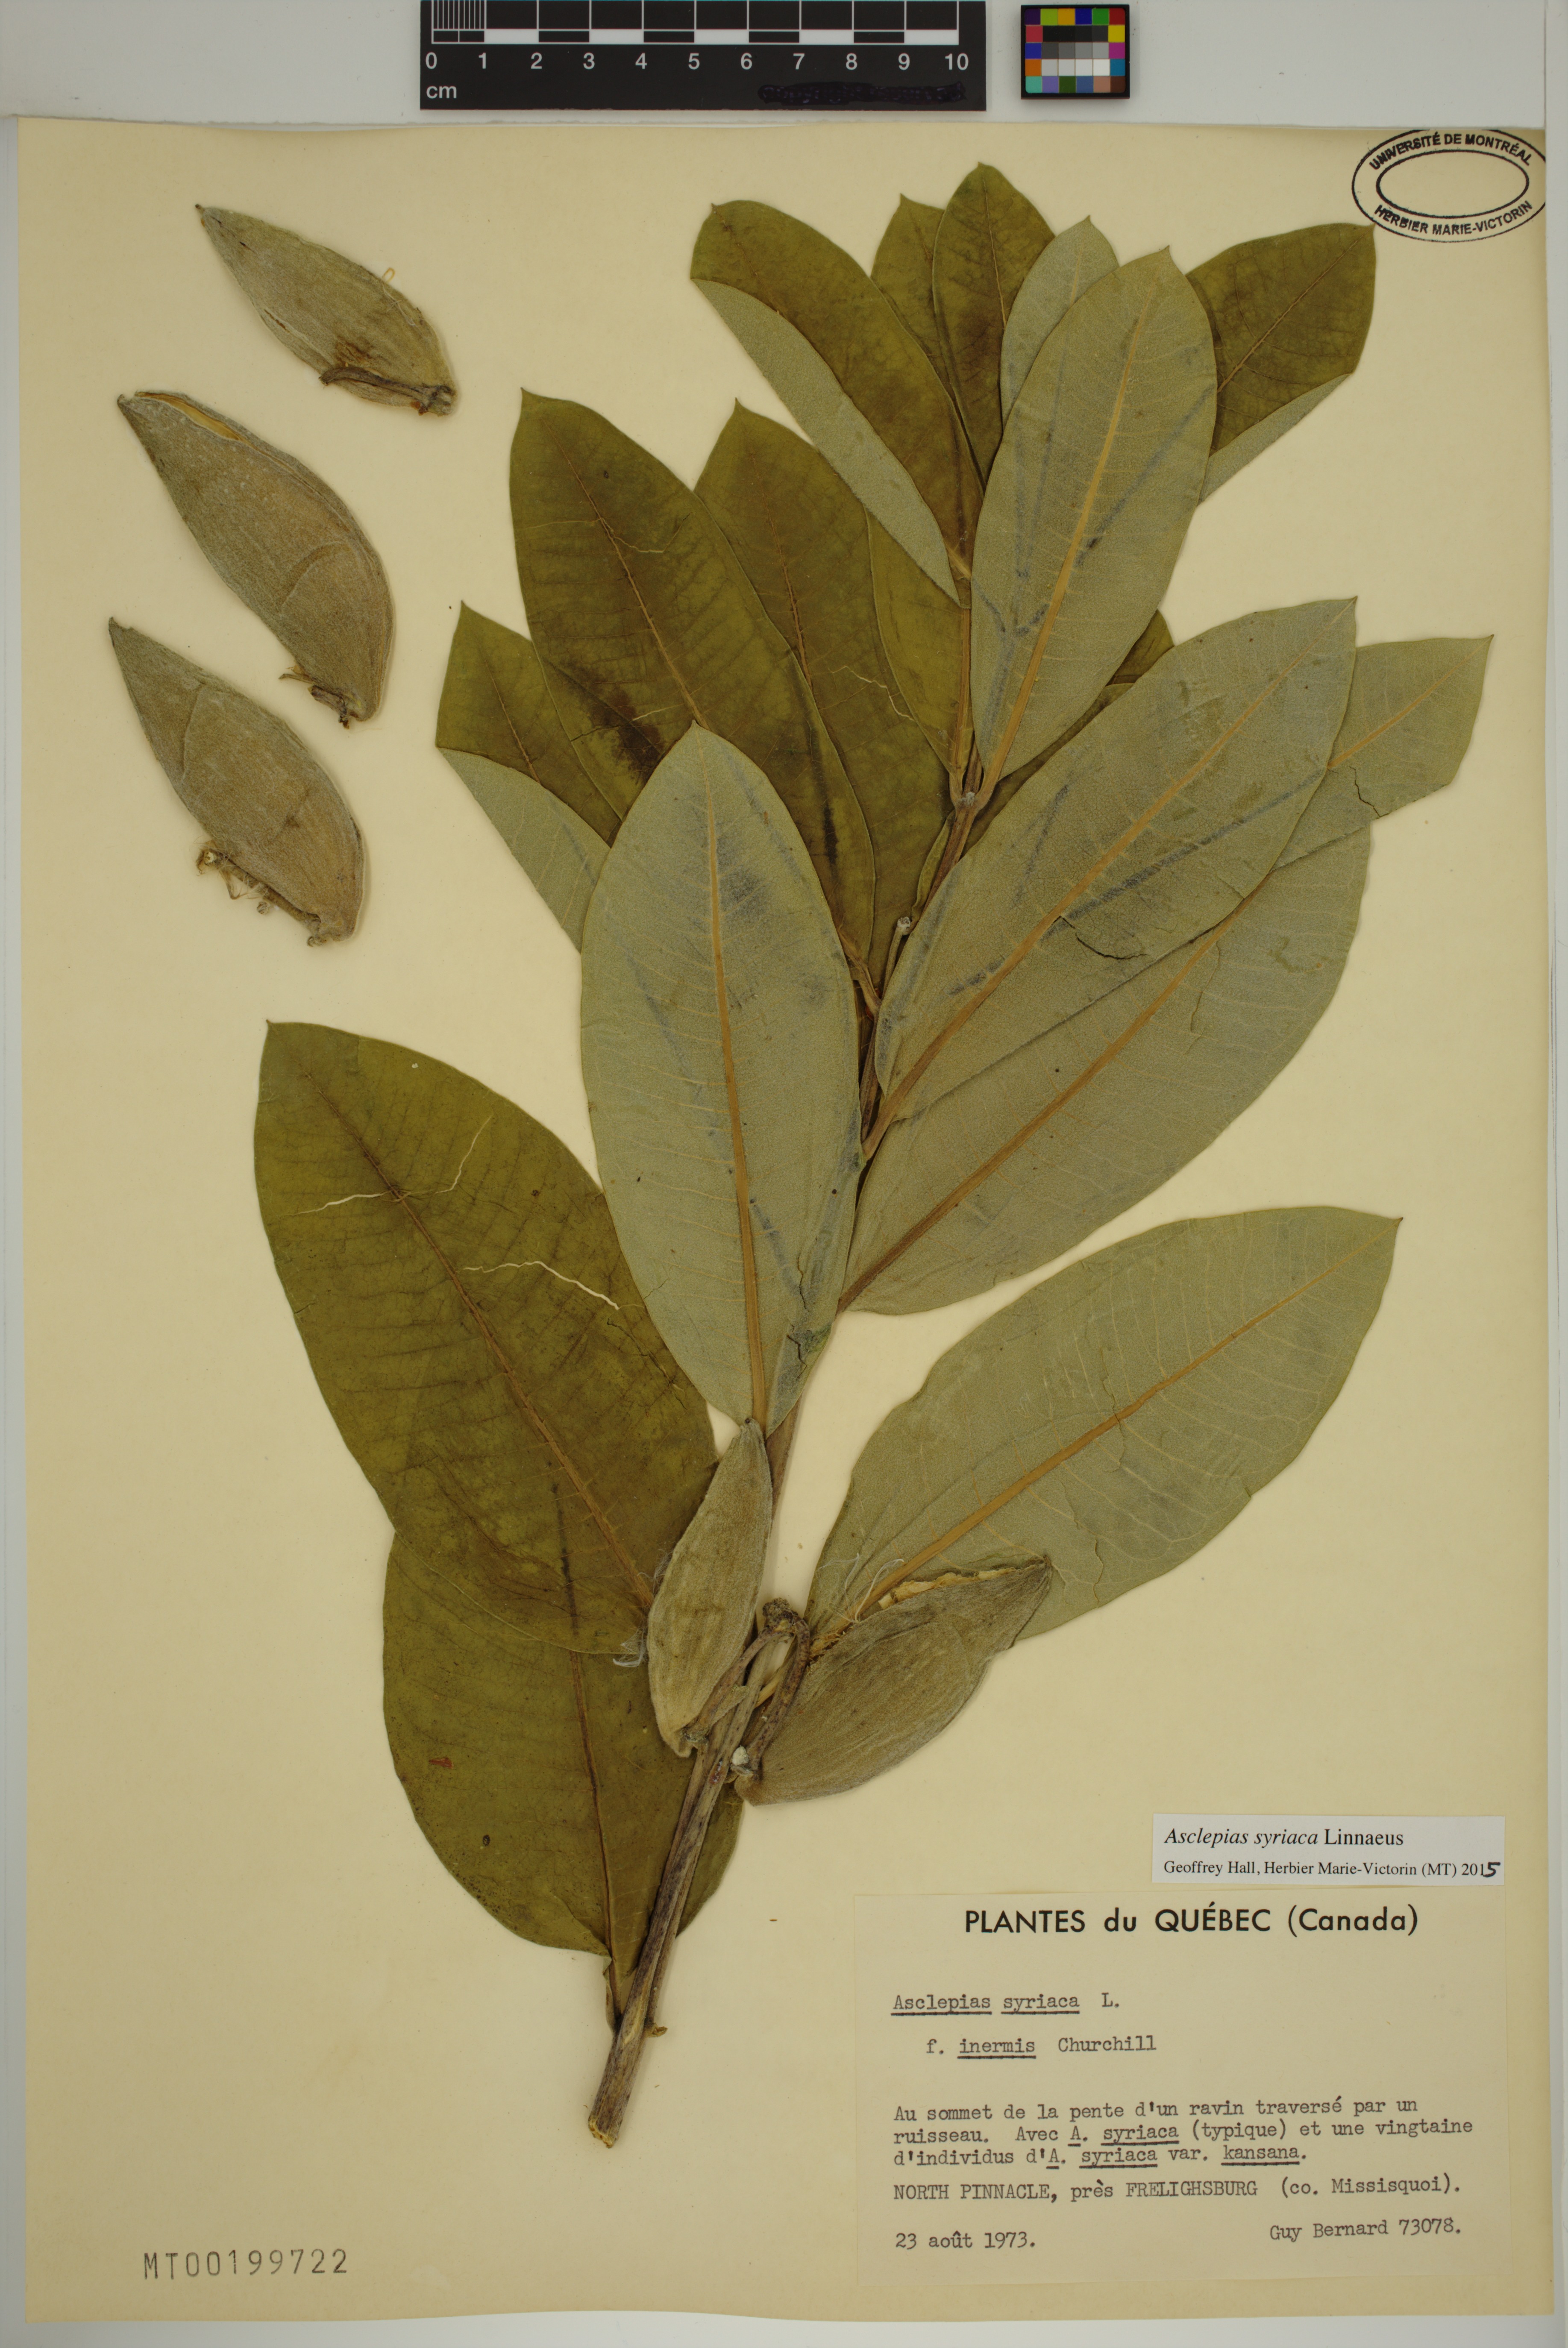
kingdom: Plantae
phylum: Tracheophyta
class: Magnoliopsida
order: Gentianales
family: Apocynaceae
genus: Asclepias
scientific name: Asclepias syriaca
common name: Common milkweed
